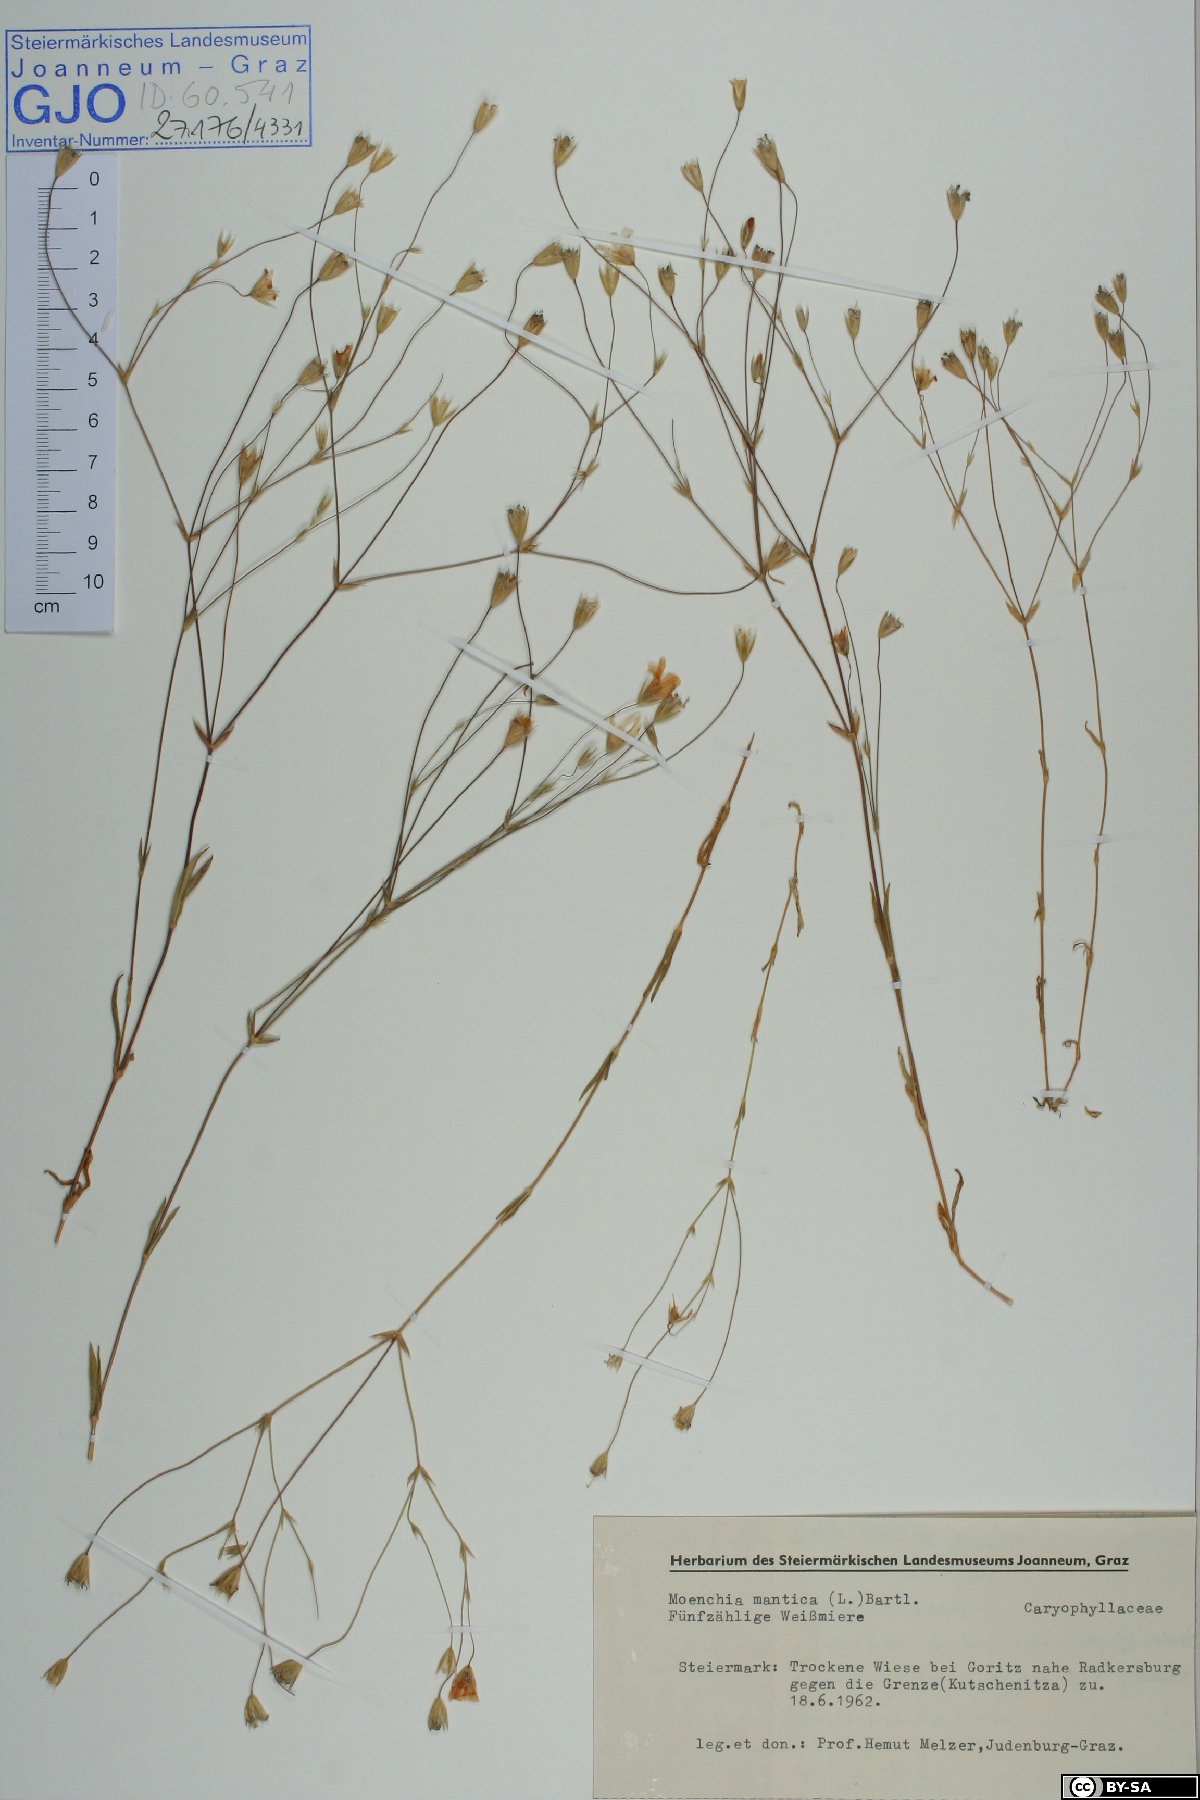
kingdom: Plantae
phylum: Tracheophyta
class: Magnoliopsida
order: Caryophyllales
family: Caryophyllaceae
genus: Moenchia
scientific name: Moenchia mantica
